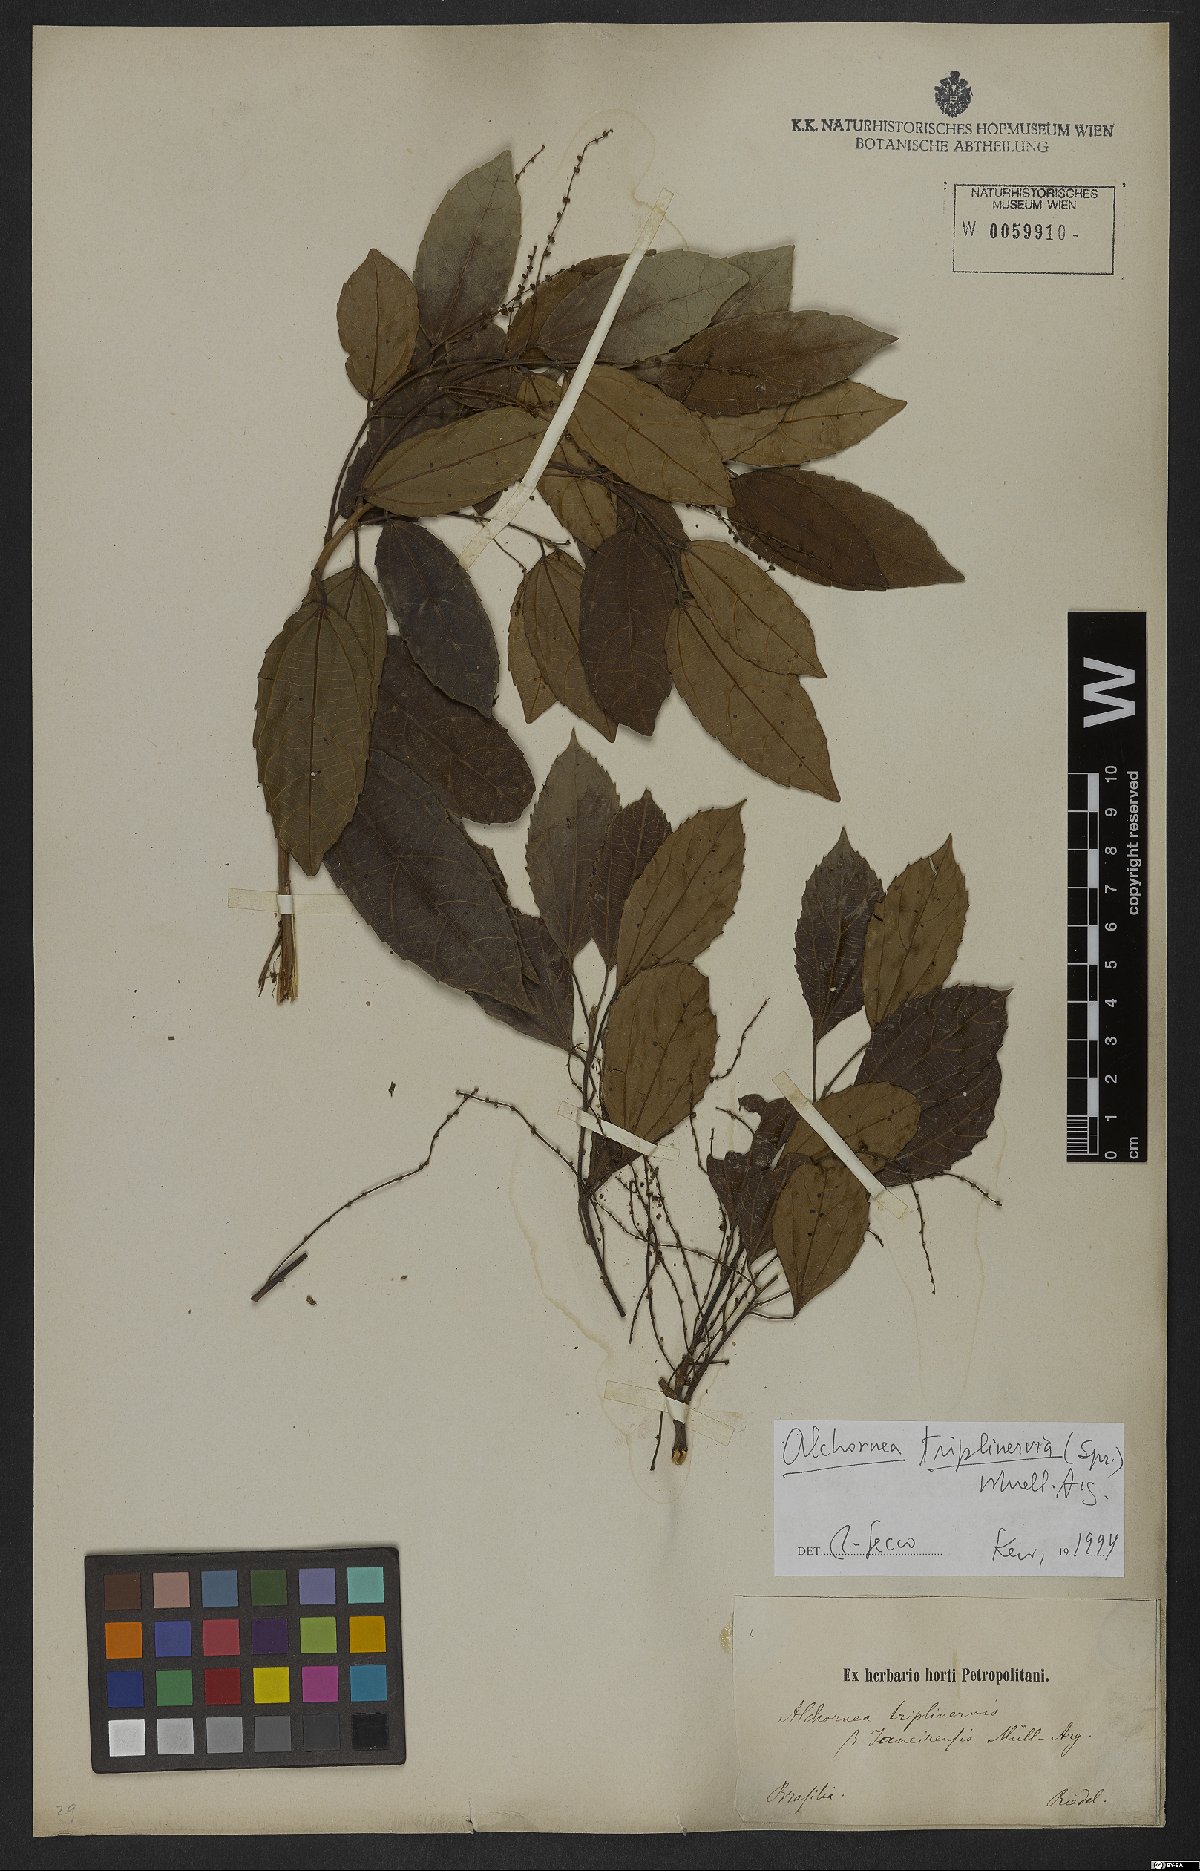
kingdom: Plantae
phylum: Tracheophyta
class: Magnoliopsida
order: Malpighiales
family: Euphorbiaceae
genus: Alchornea
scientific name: Alchornea triplinervia
